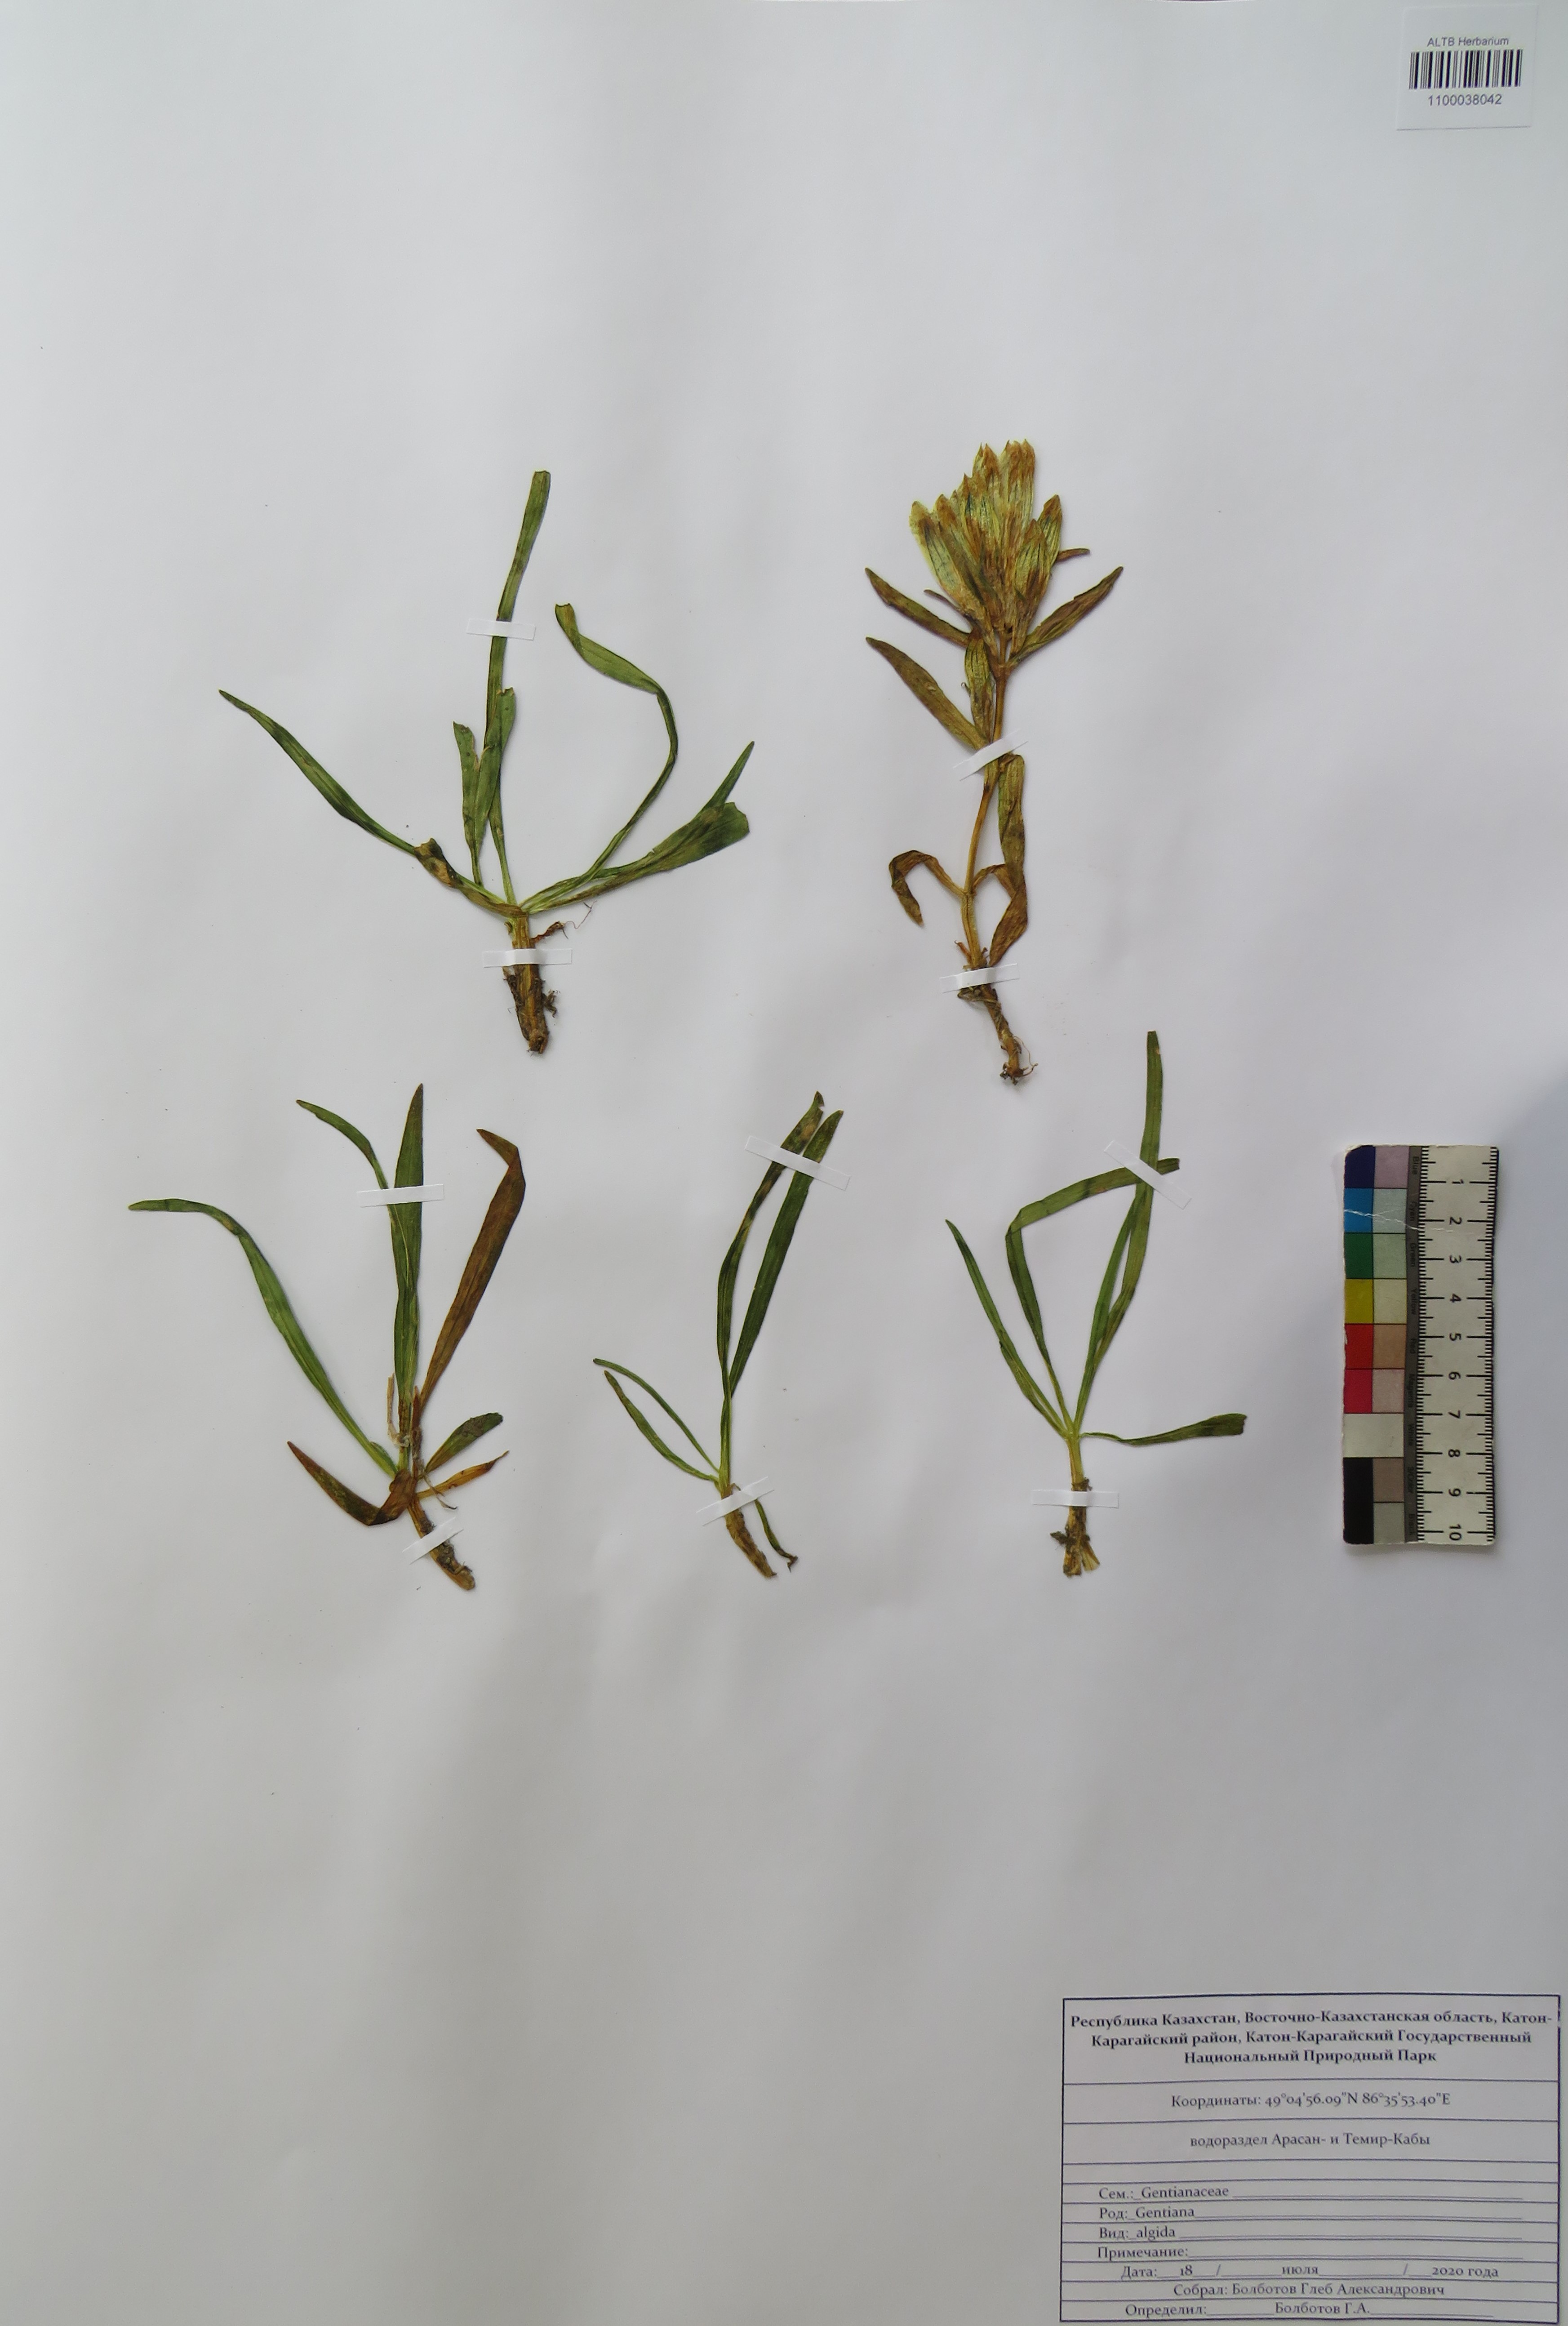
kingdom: Plantae
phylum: Tracheophyta
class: Magnoliopsida
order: Gentianales
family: Gentianaceae
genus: Gentiana
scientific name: Gentiana algida
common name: Arctic gentian
